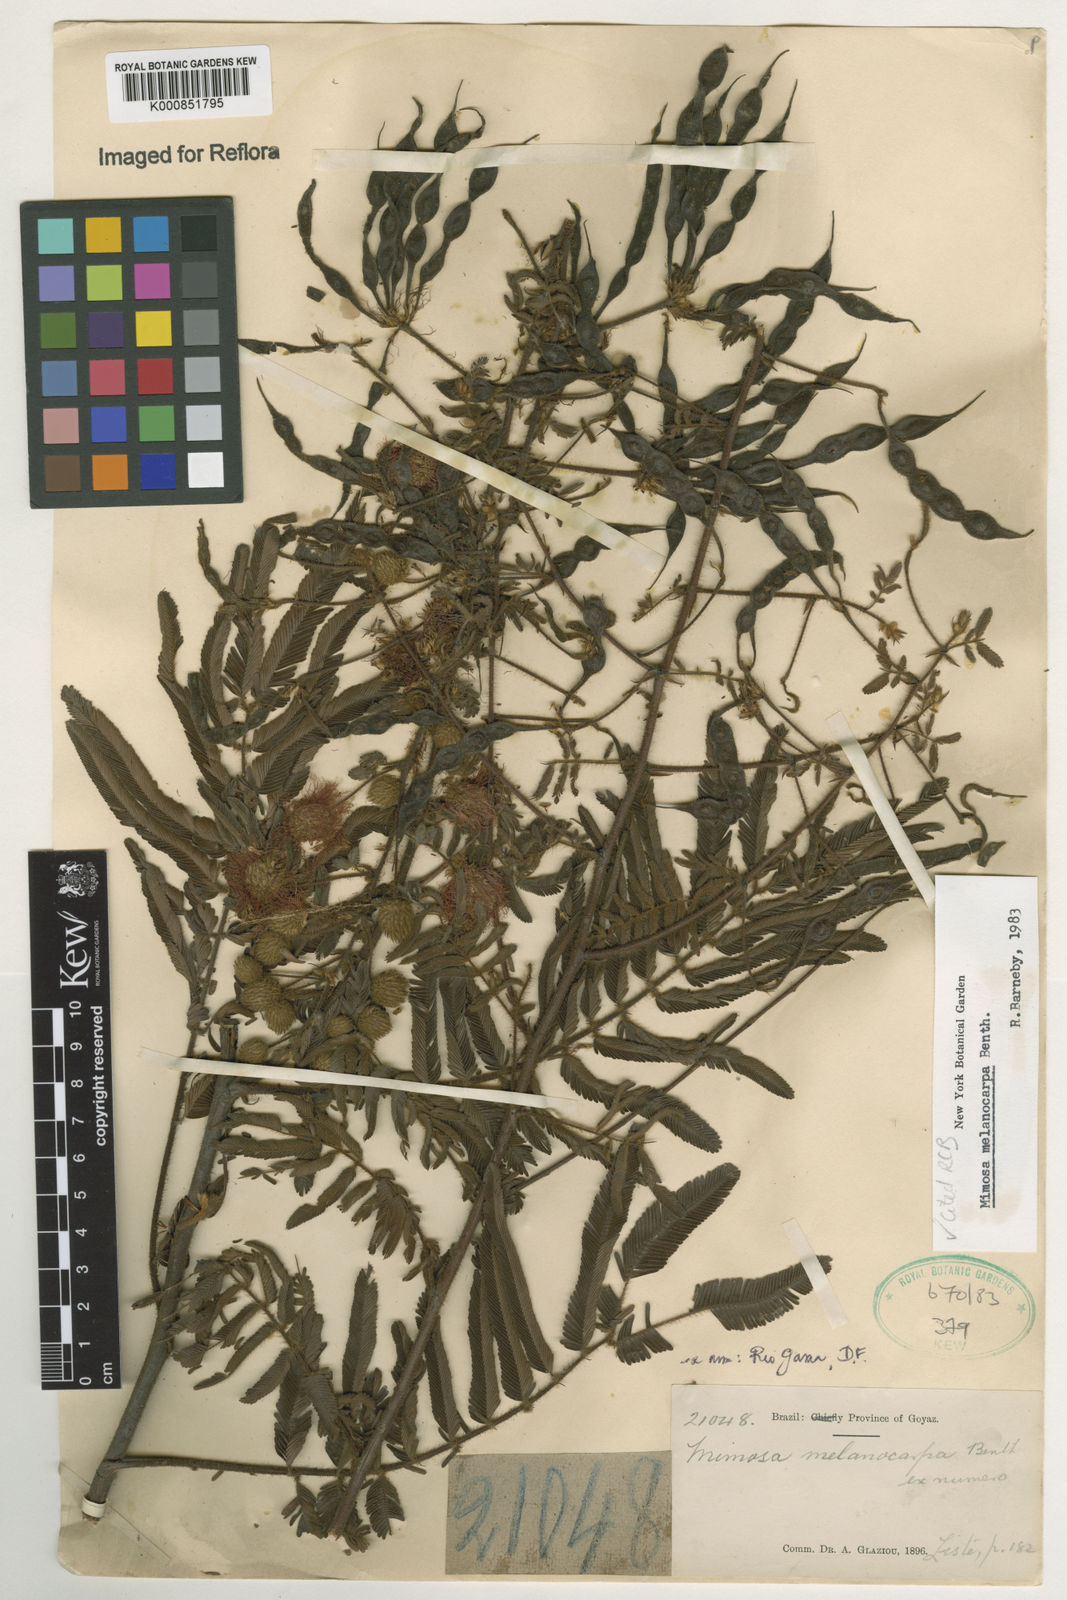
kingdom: Plantae
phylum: Tracheophyta
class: Magnoliopsida
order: Fabales
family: Fabaceae
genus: Mimosa
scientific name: Mimosa melanocarpa
